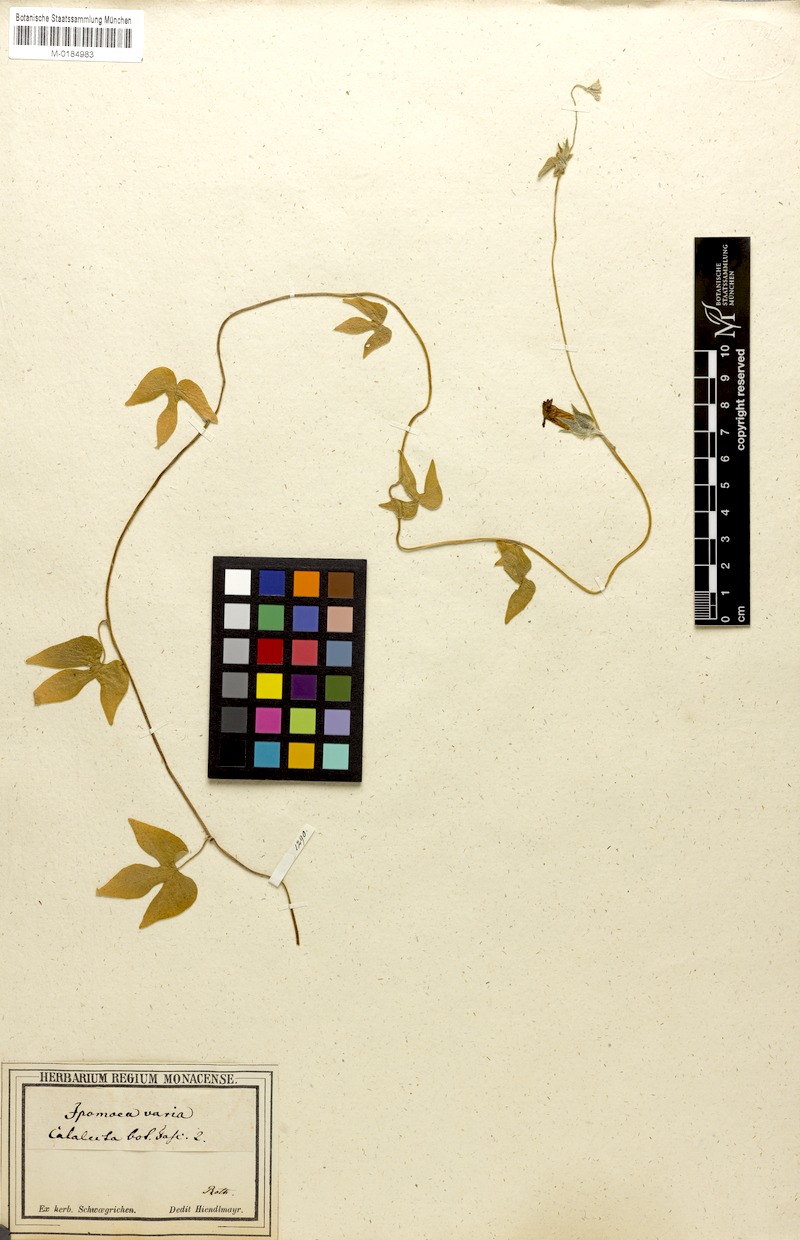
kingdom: Plantae
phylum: Tracheophyta
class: Magnoliopsida
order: Solanales
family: Convolvulaceae
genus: Ipomoea
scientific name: Ipomoea pubescens
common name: Silky morning-glory
